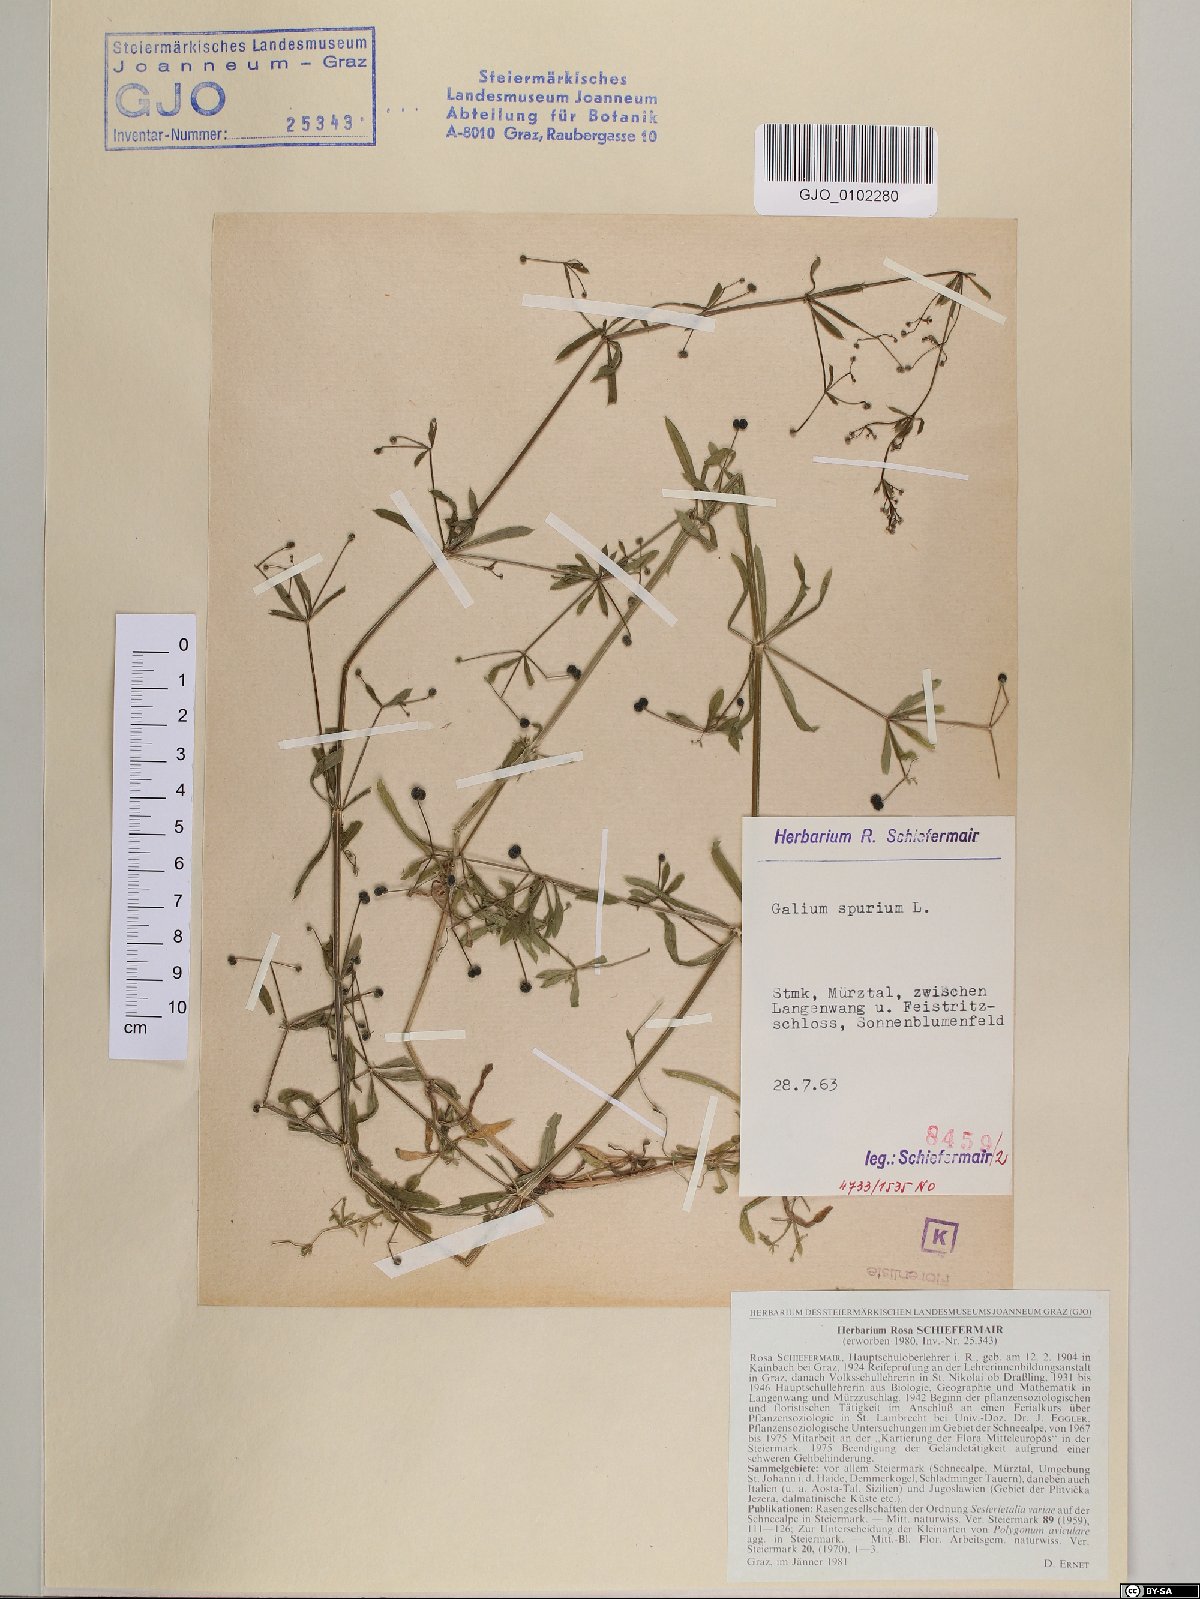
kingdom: Plantae
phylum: Tracheophyta
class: Magnoliopsida
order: Gentianales
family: Rubiaceae
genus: Galium
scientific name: Galium spurium
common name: False cleavers
